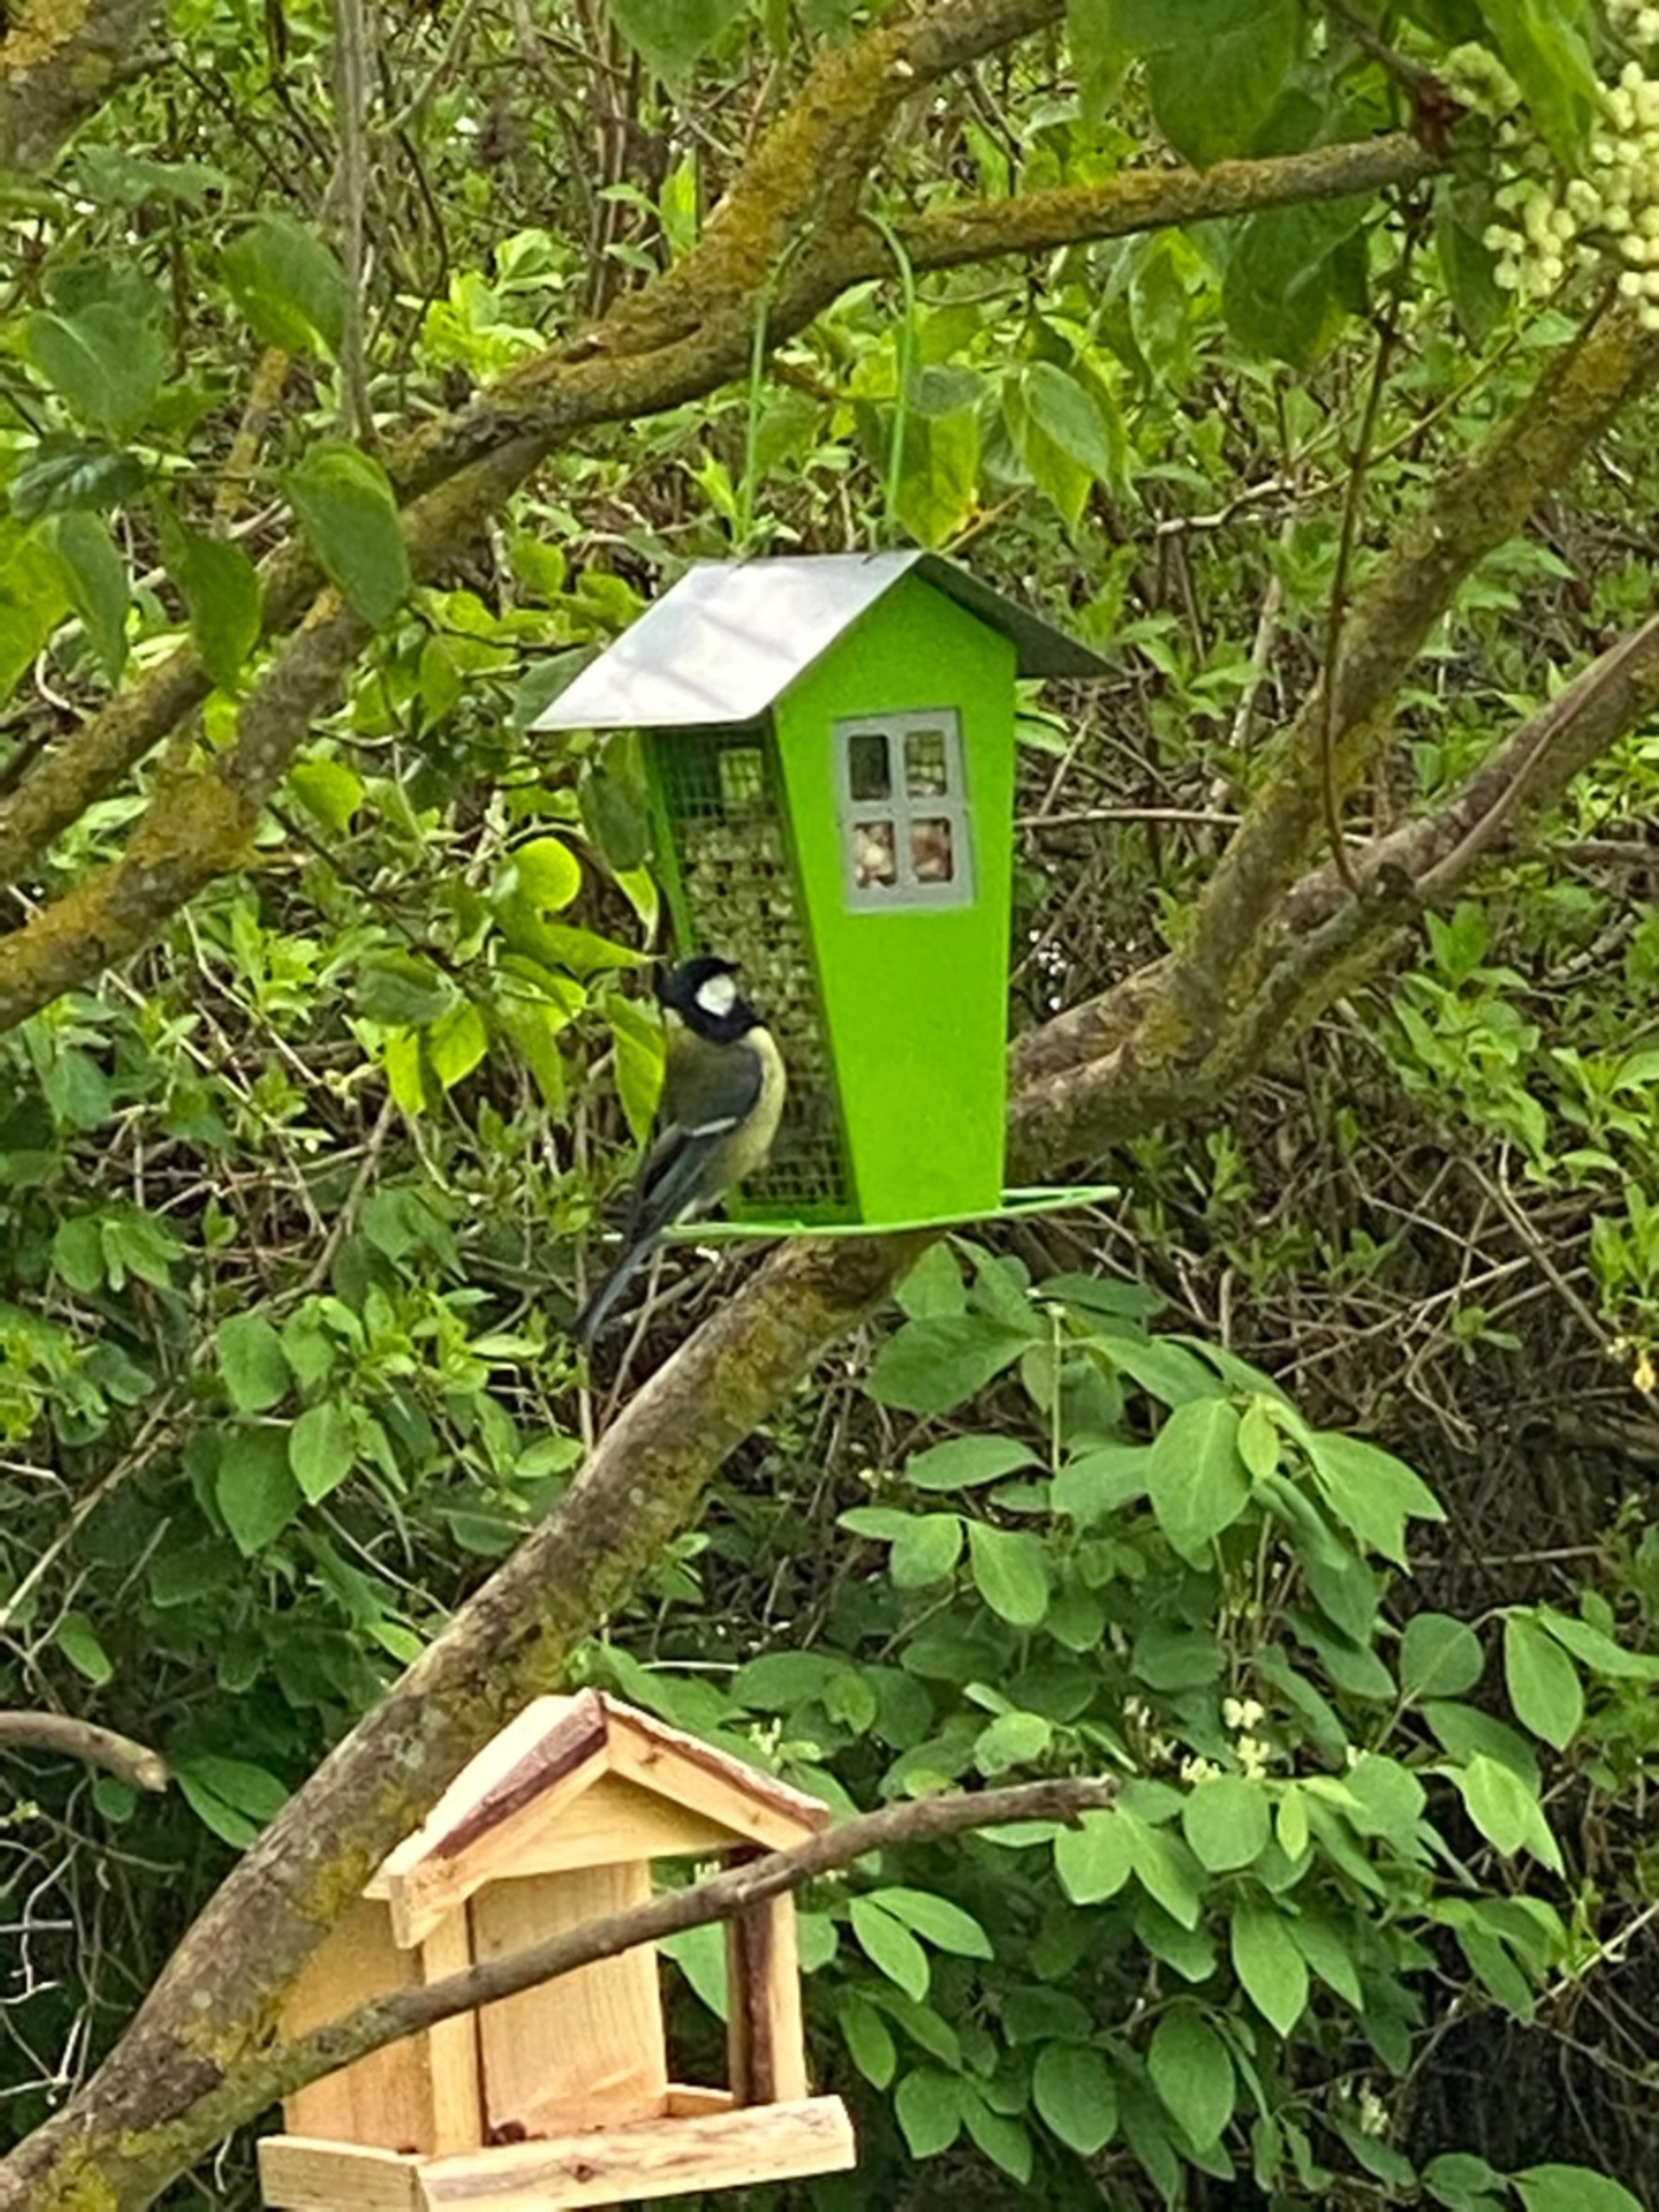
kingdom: Animalia
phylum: Chordata
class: Aves
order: Passeriformes
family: Paridae
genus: Parus
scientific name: Parus major
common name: Musvit
